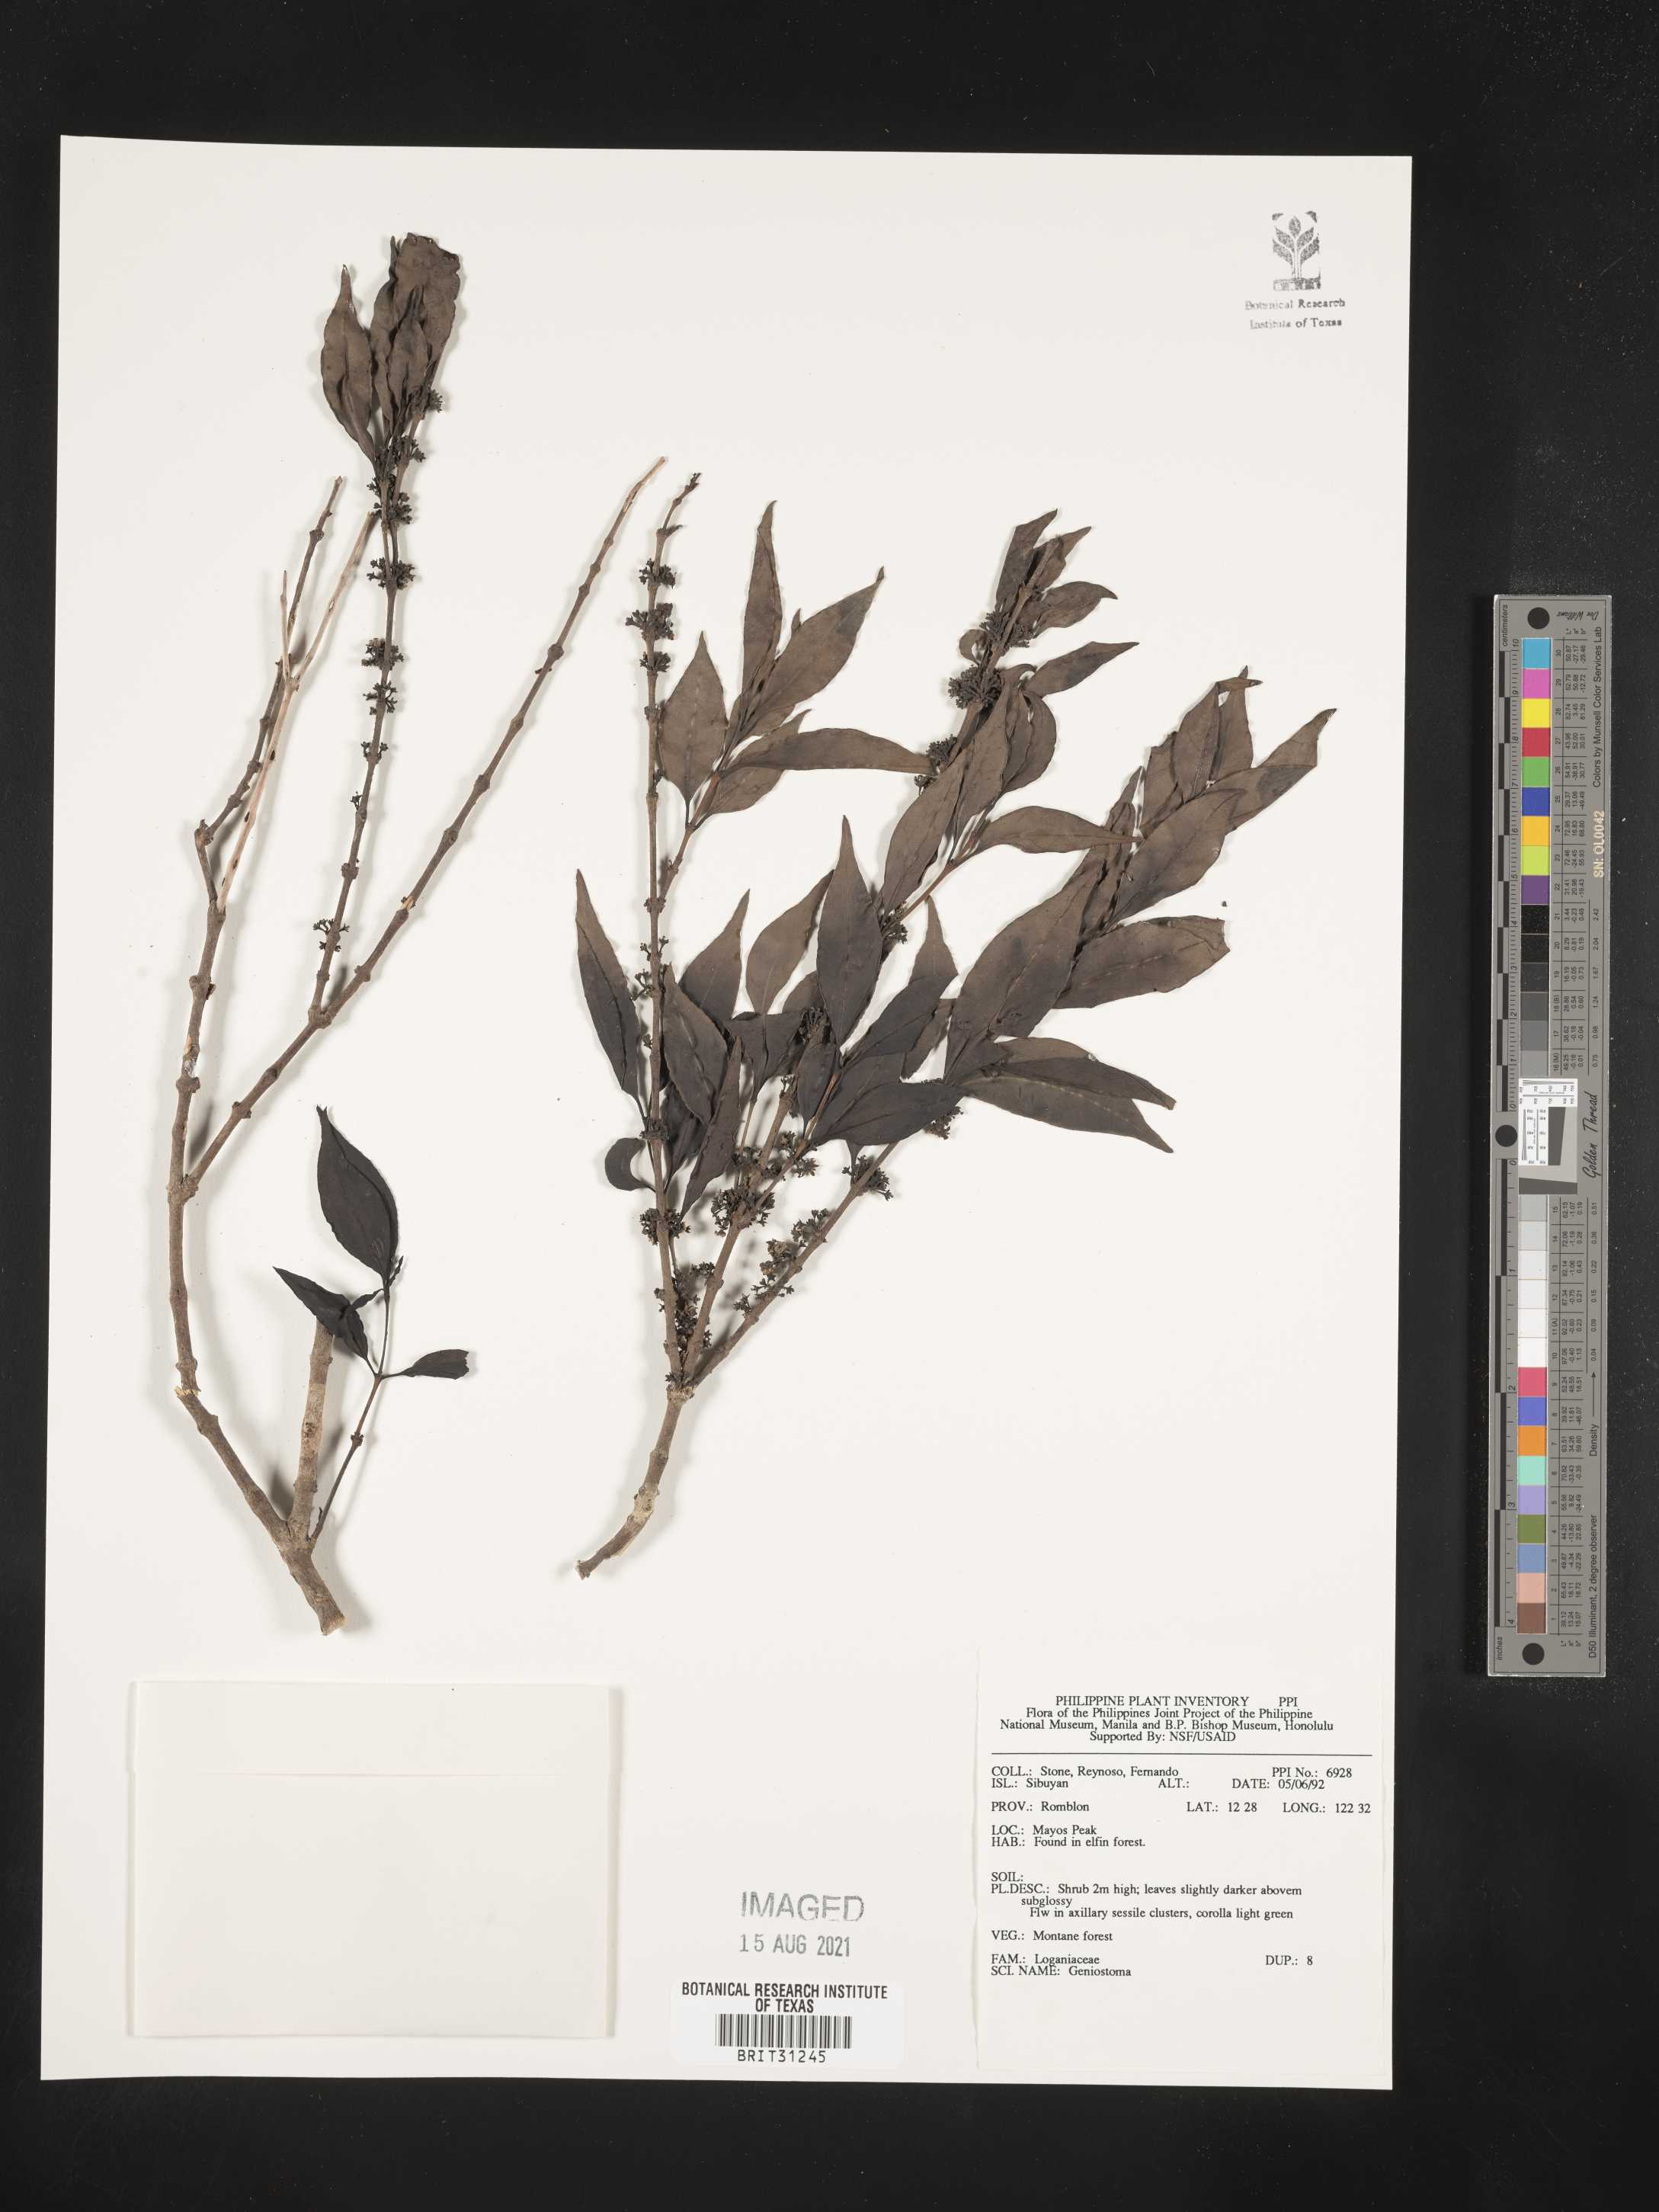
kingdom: Plantae
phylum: Tracheophyta
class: Magnoliopsida
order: Gentianales
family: Loganiaceae
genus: Geniostoma
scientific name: Geniostoma
